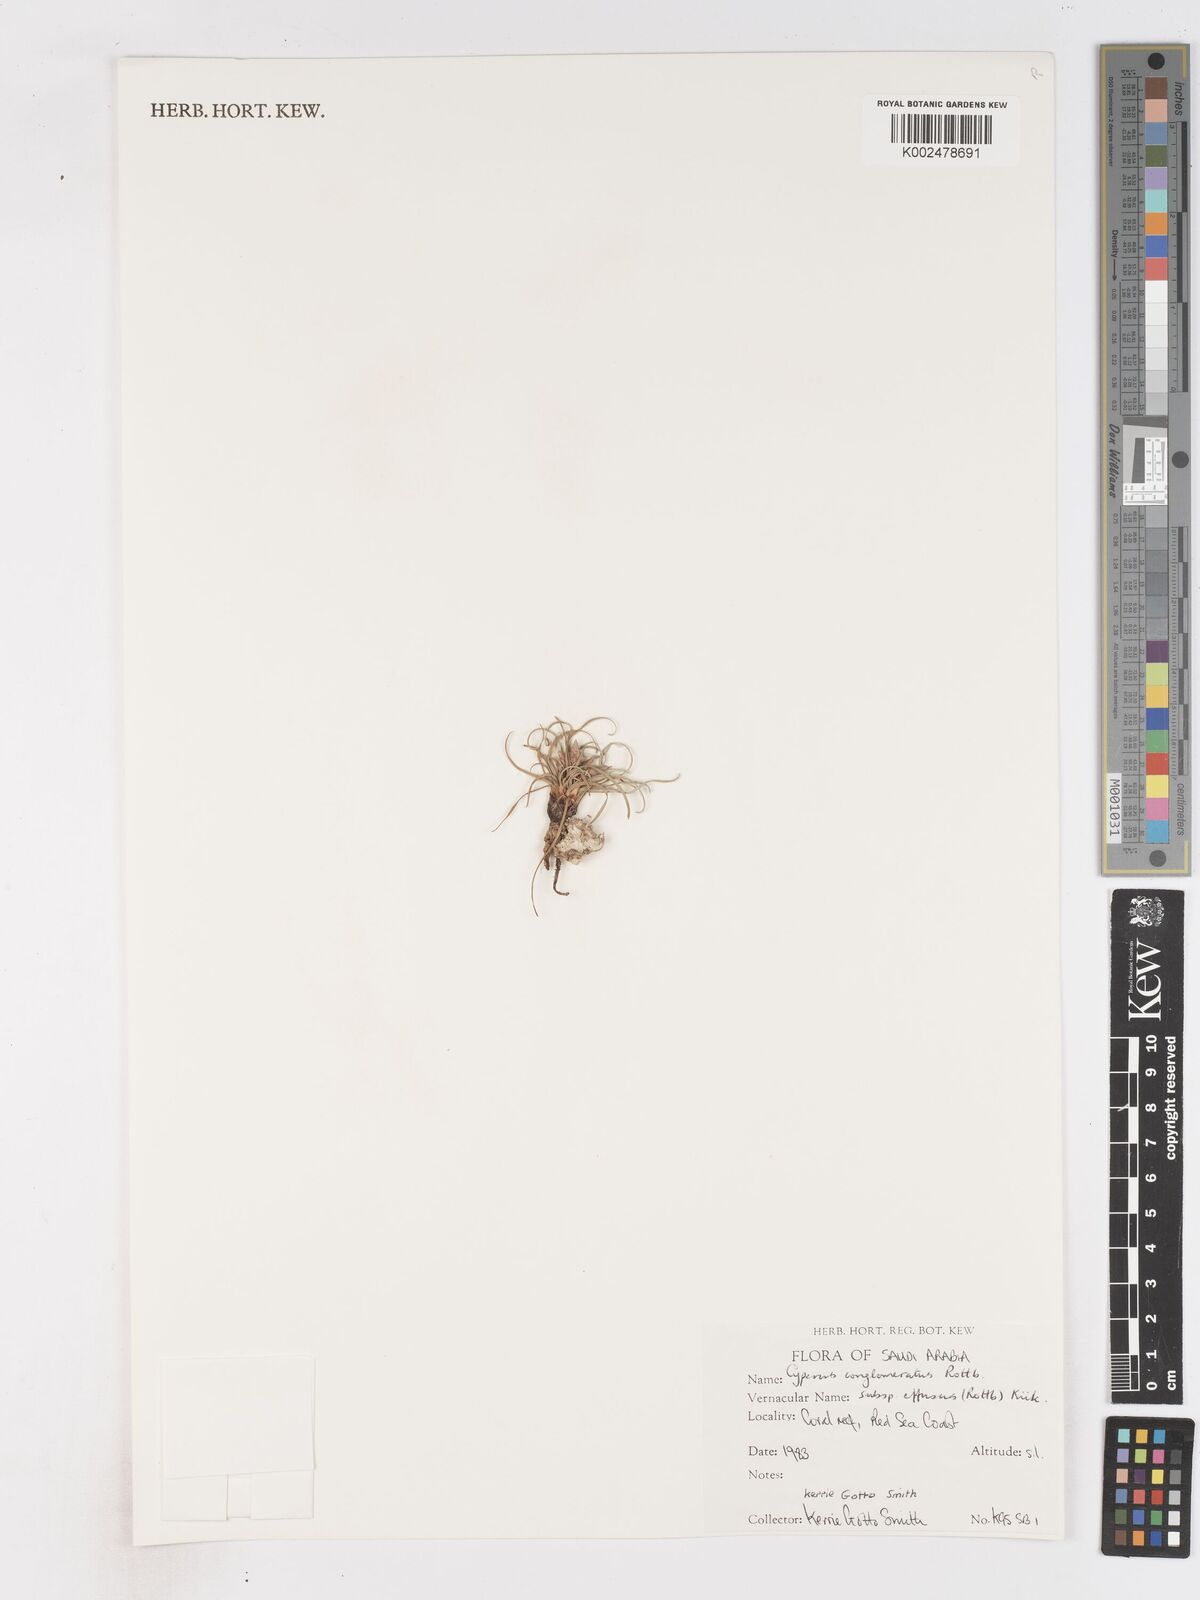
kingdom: Plantae
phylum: Tracheophyta
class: Liliopsida
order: Poales
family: Cyperaceae
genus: Cyperus
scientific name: Cyperus conglomeratus
